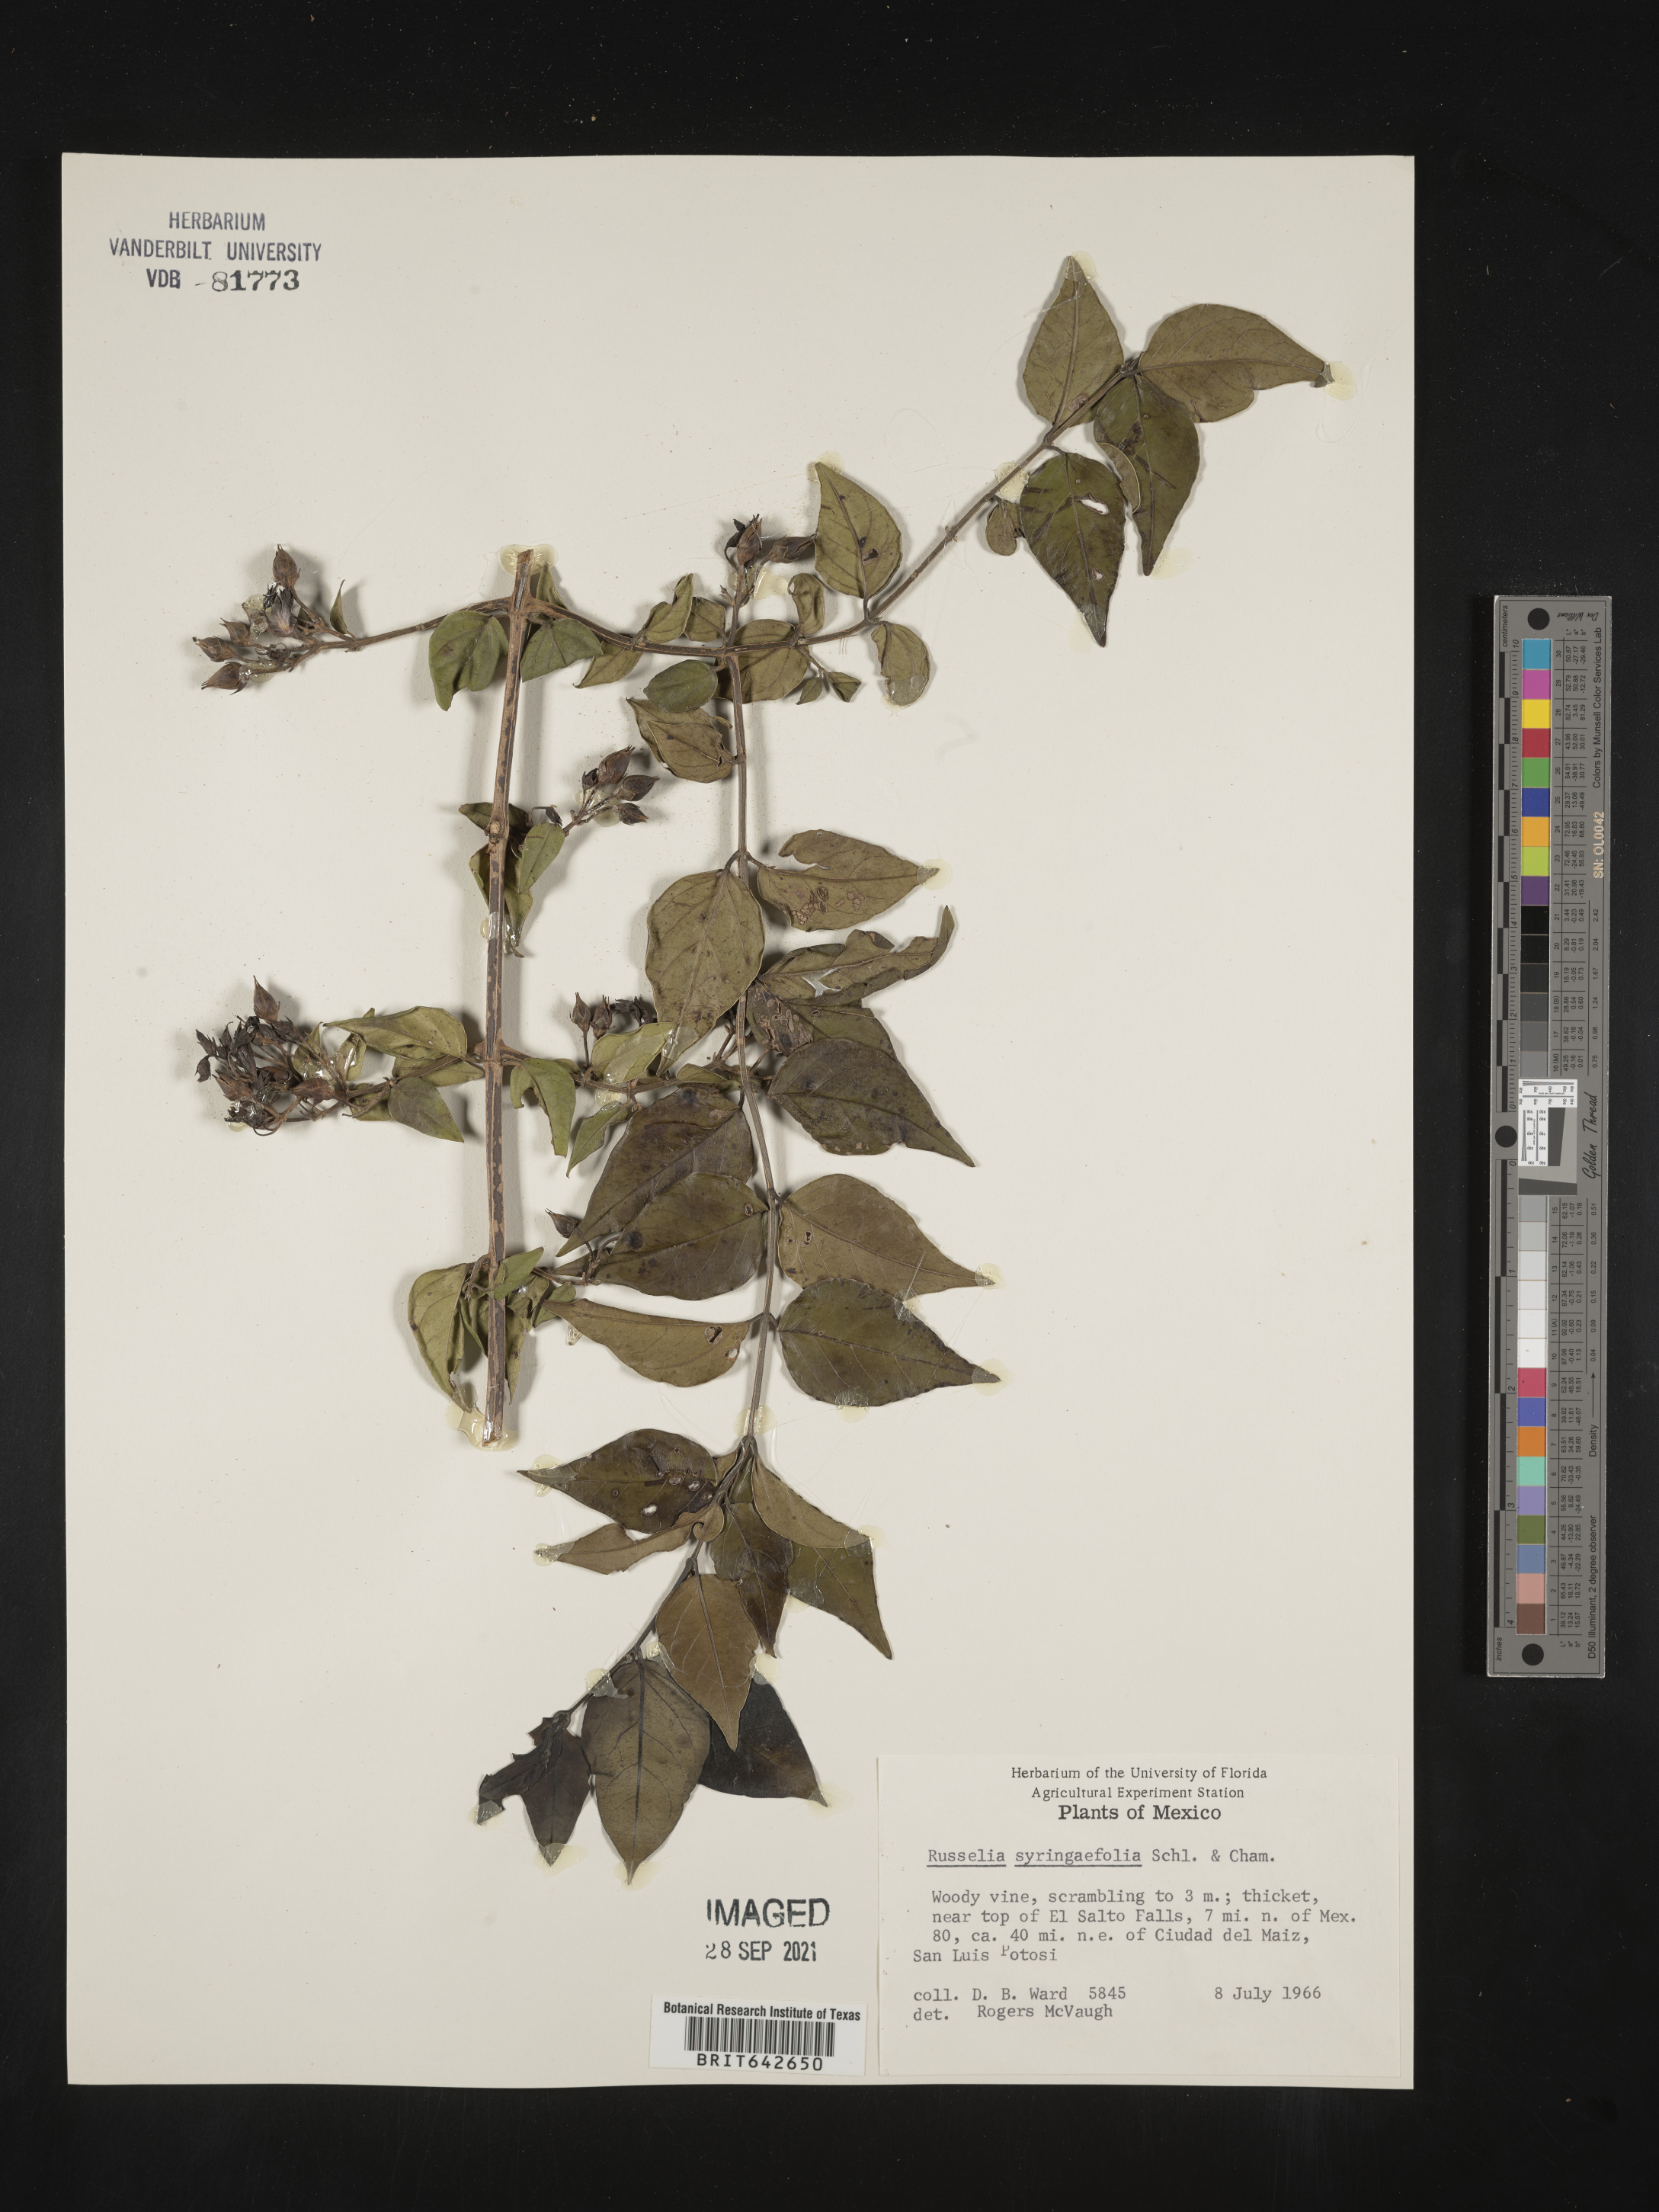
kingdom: Plantae
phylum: Tracheophyta
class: Magnoliopsida
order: Lamiales
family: Plantaginaceae
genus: Russelia
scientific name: Russelia
